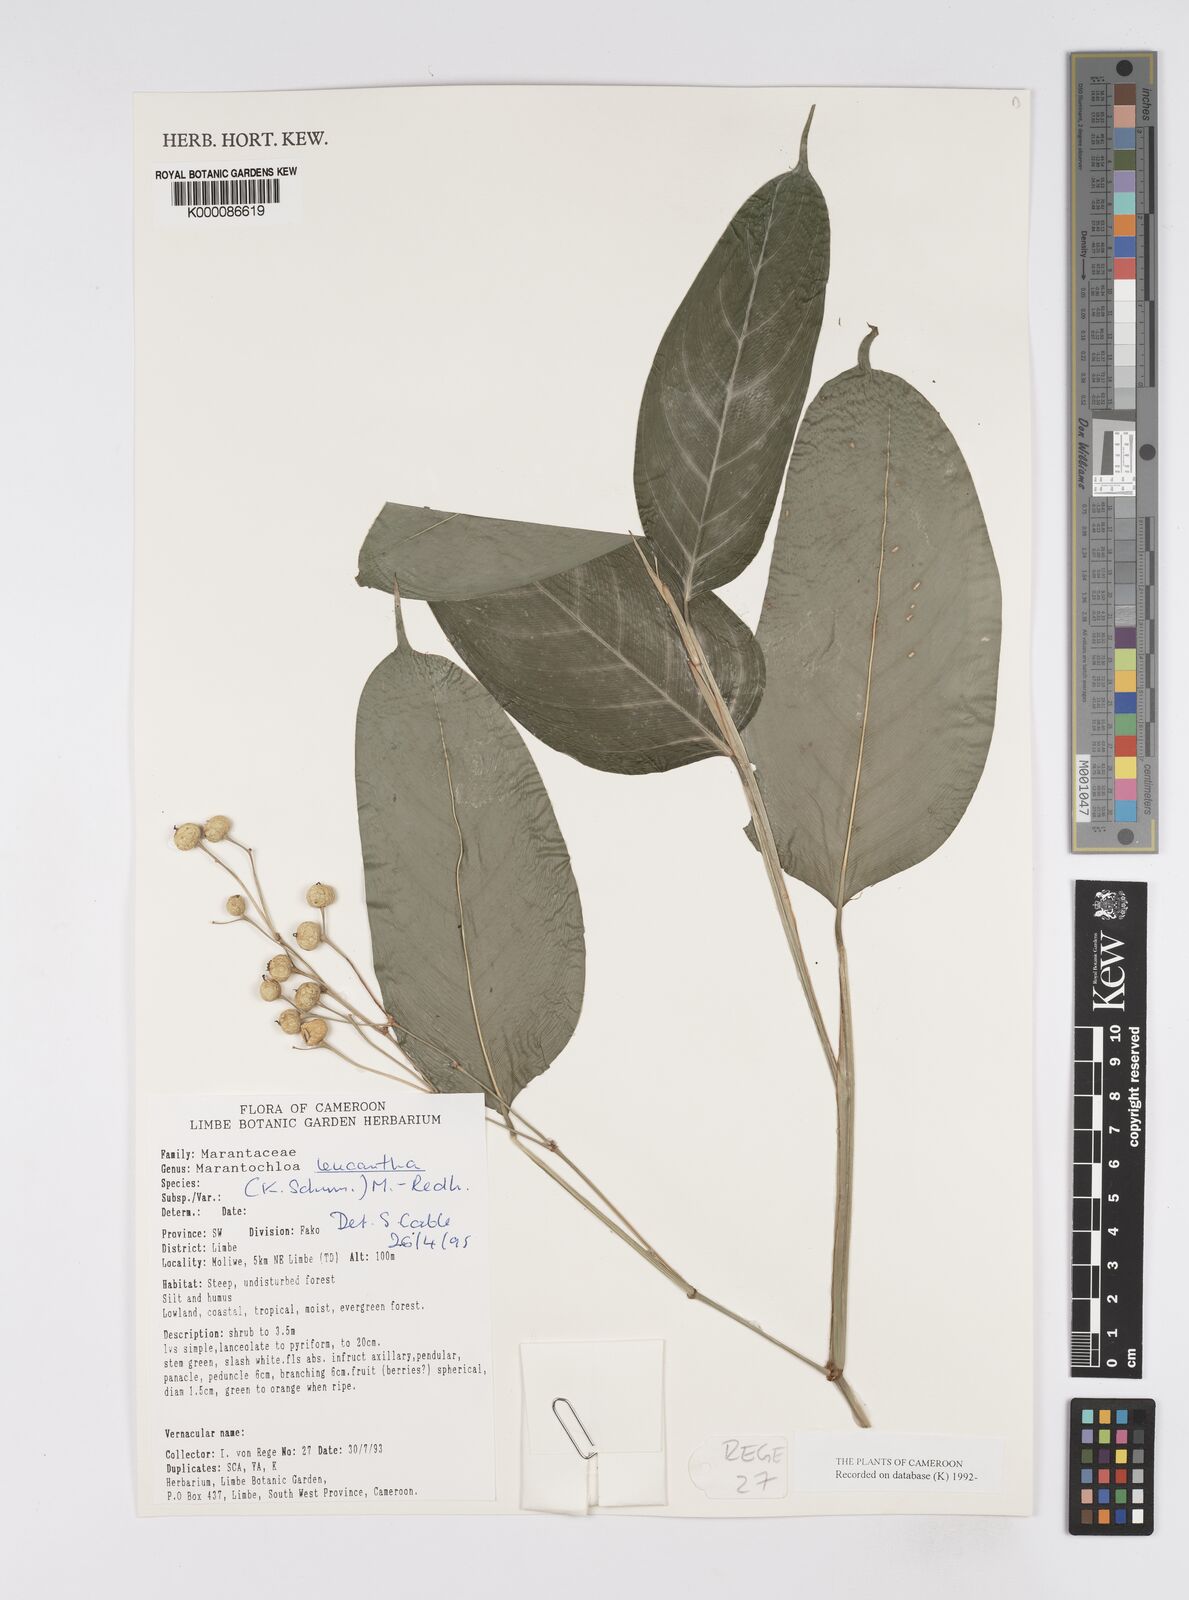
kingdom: Plantae
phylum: Tracheophyta
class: Liliopsida
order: Zingiberales
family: Marantaceae
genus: Marantochloa
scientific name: Marantochloa leucantha
